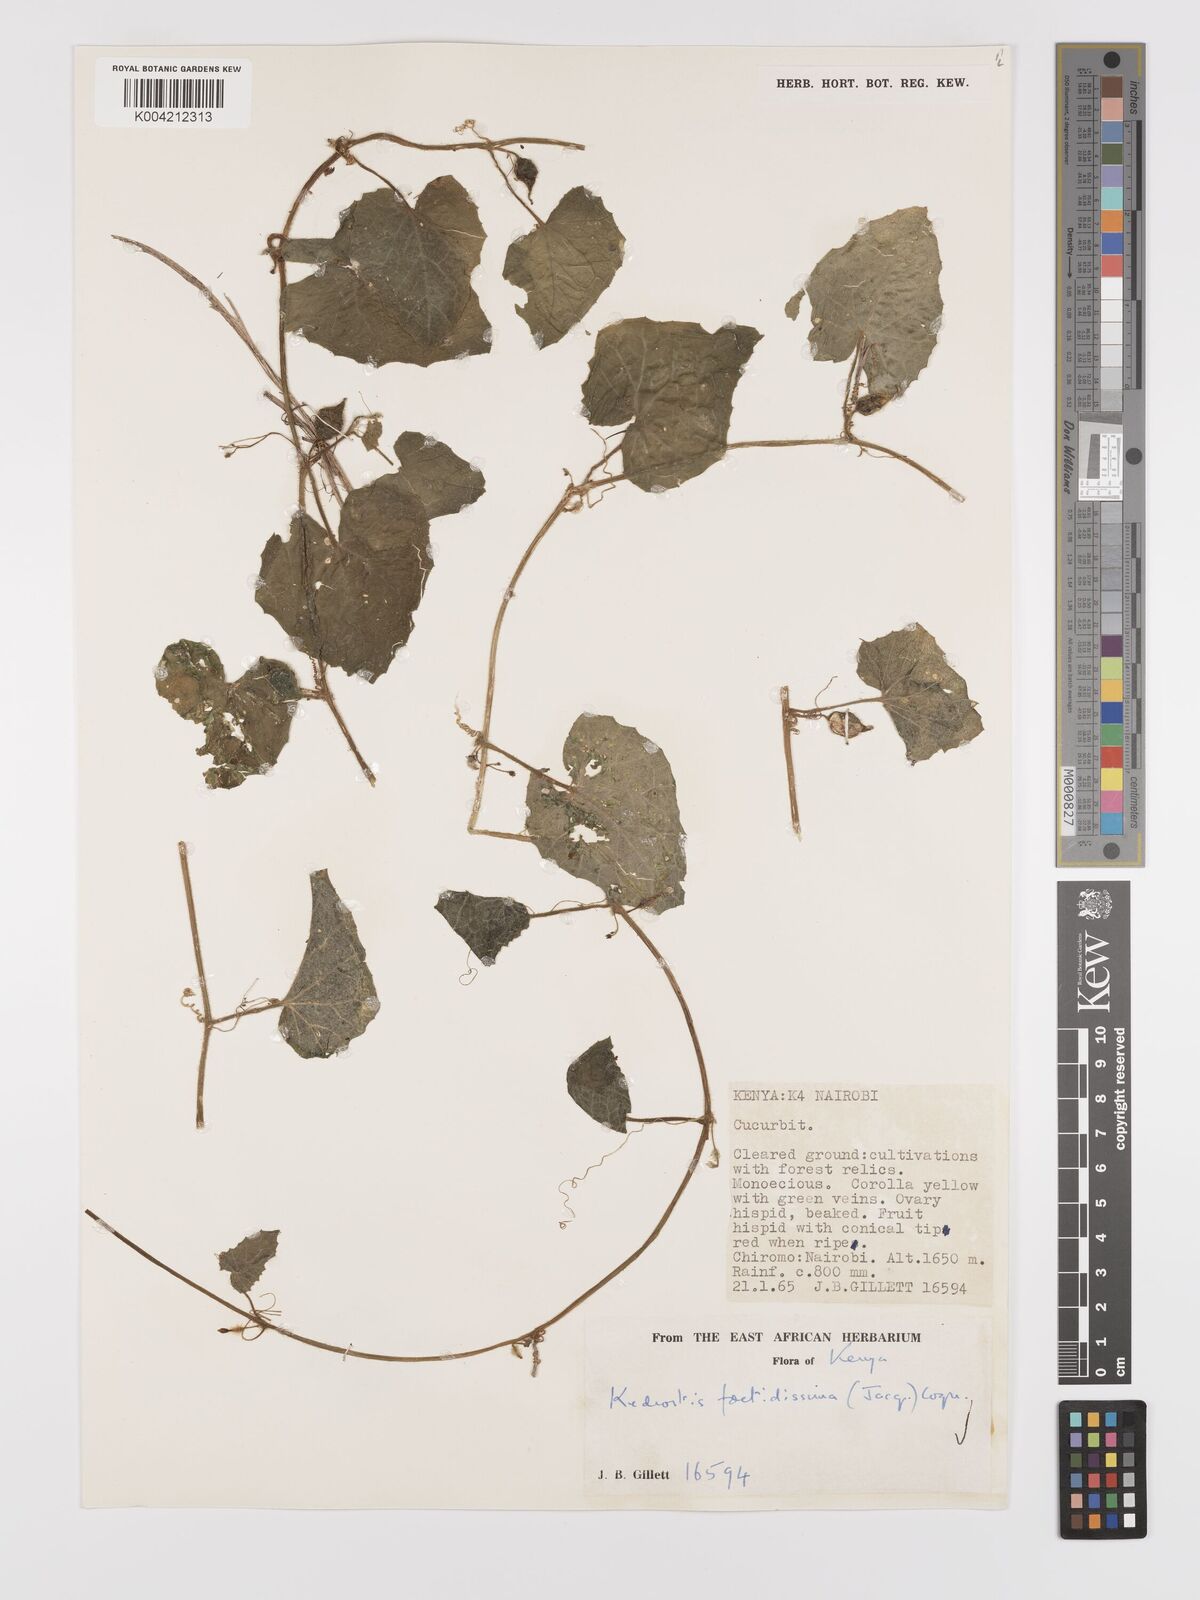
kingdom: Plantae
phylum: Tracheophyta
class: Magnoliopsida
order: Cucurbitales
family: Cucurbitaceae
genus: Kedrostis
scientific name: Kedrostis foetidissima
